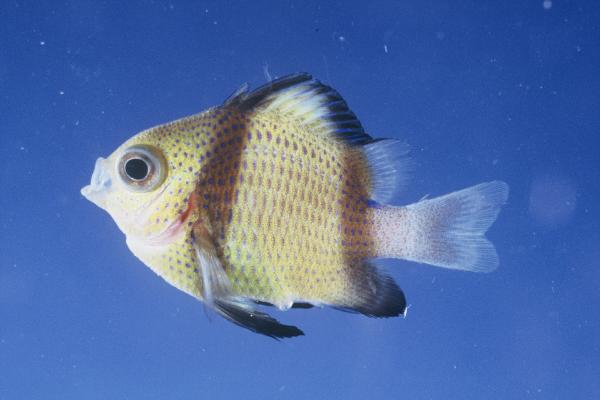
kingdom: Animalia
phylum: Chordata
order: Perciformes
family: Pomacentridae
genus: Dascyllus
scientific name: Dascyllus carneus
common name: Indian dascyllus
